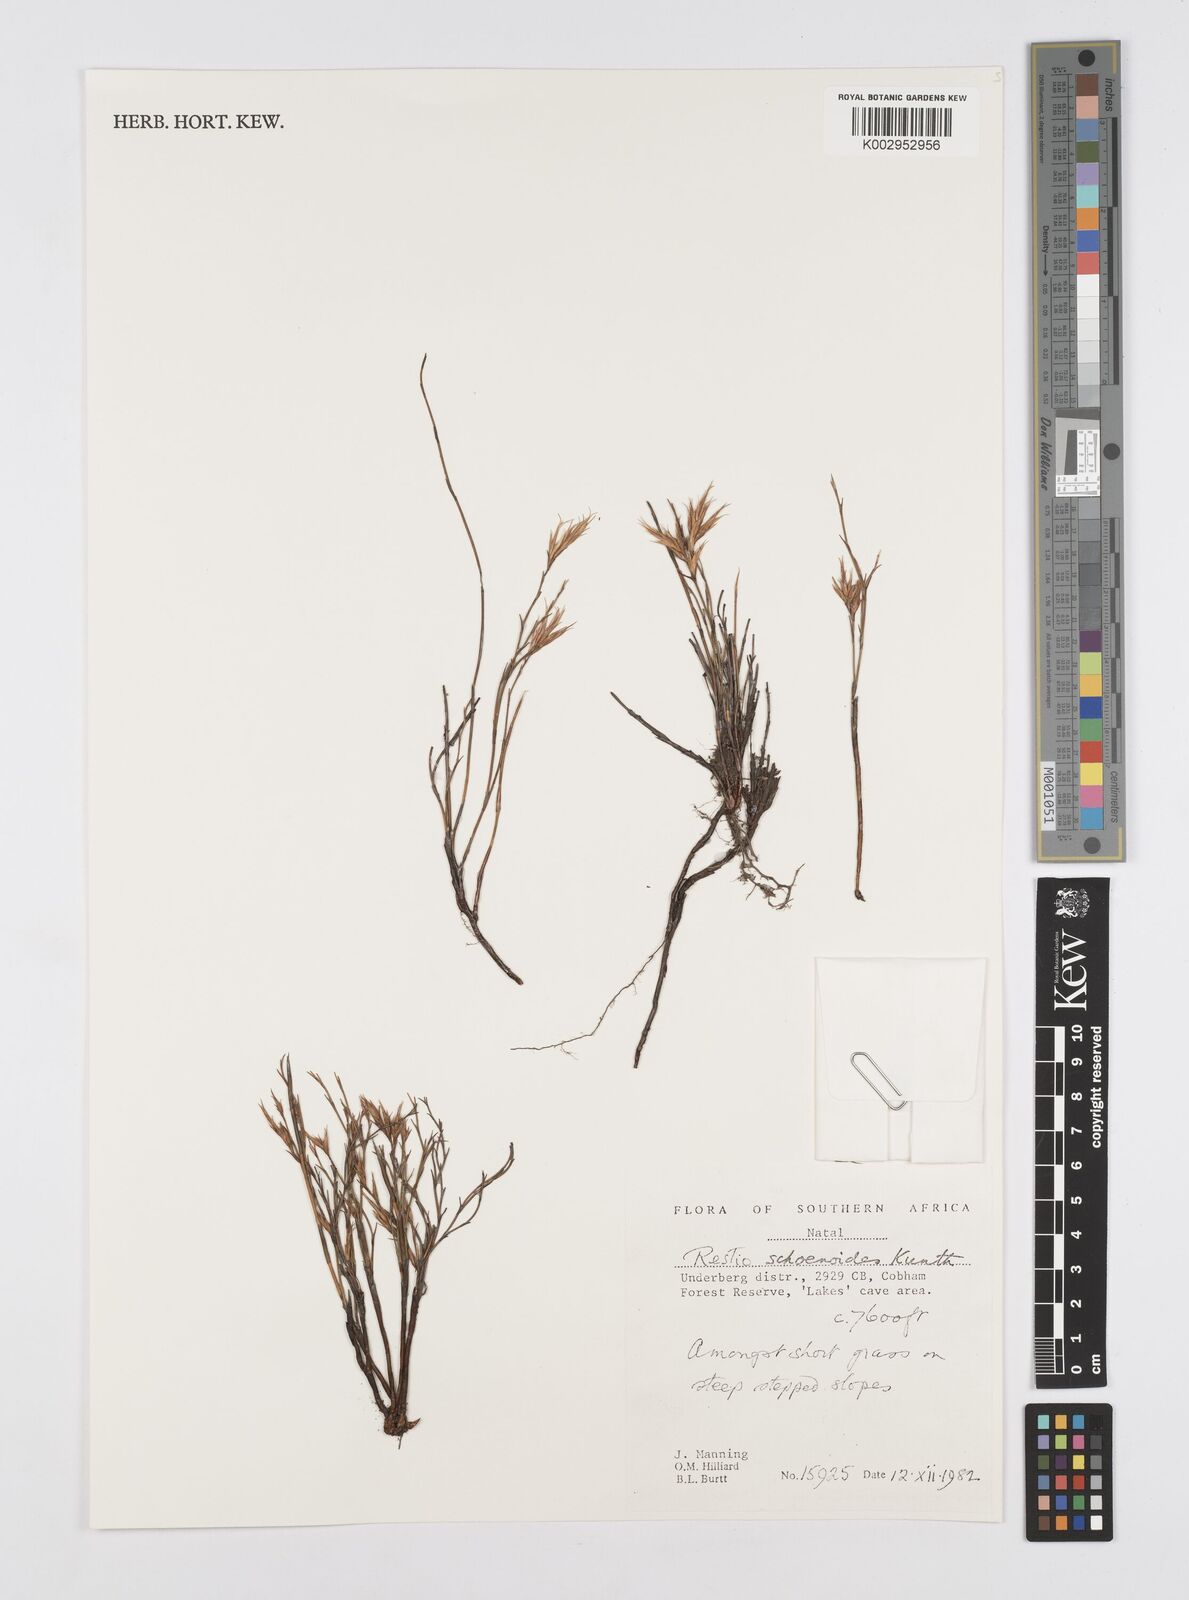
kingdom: Plantae
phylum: Tracheophyta
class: Liliopsida
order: Poales
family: Restionaceae
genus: Restio
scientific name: Restio schoenoides
